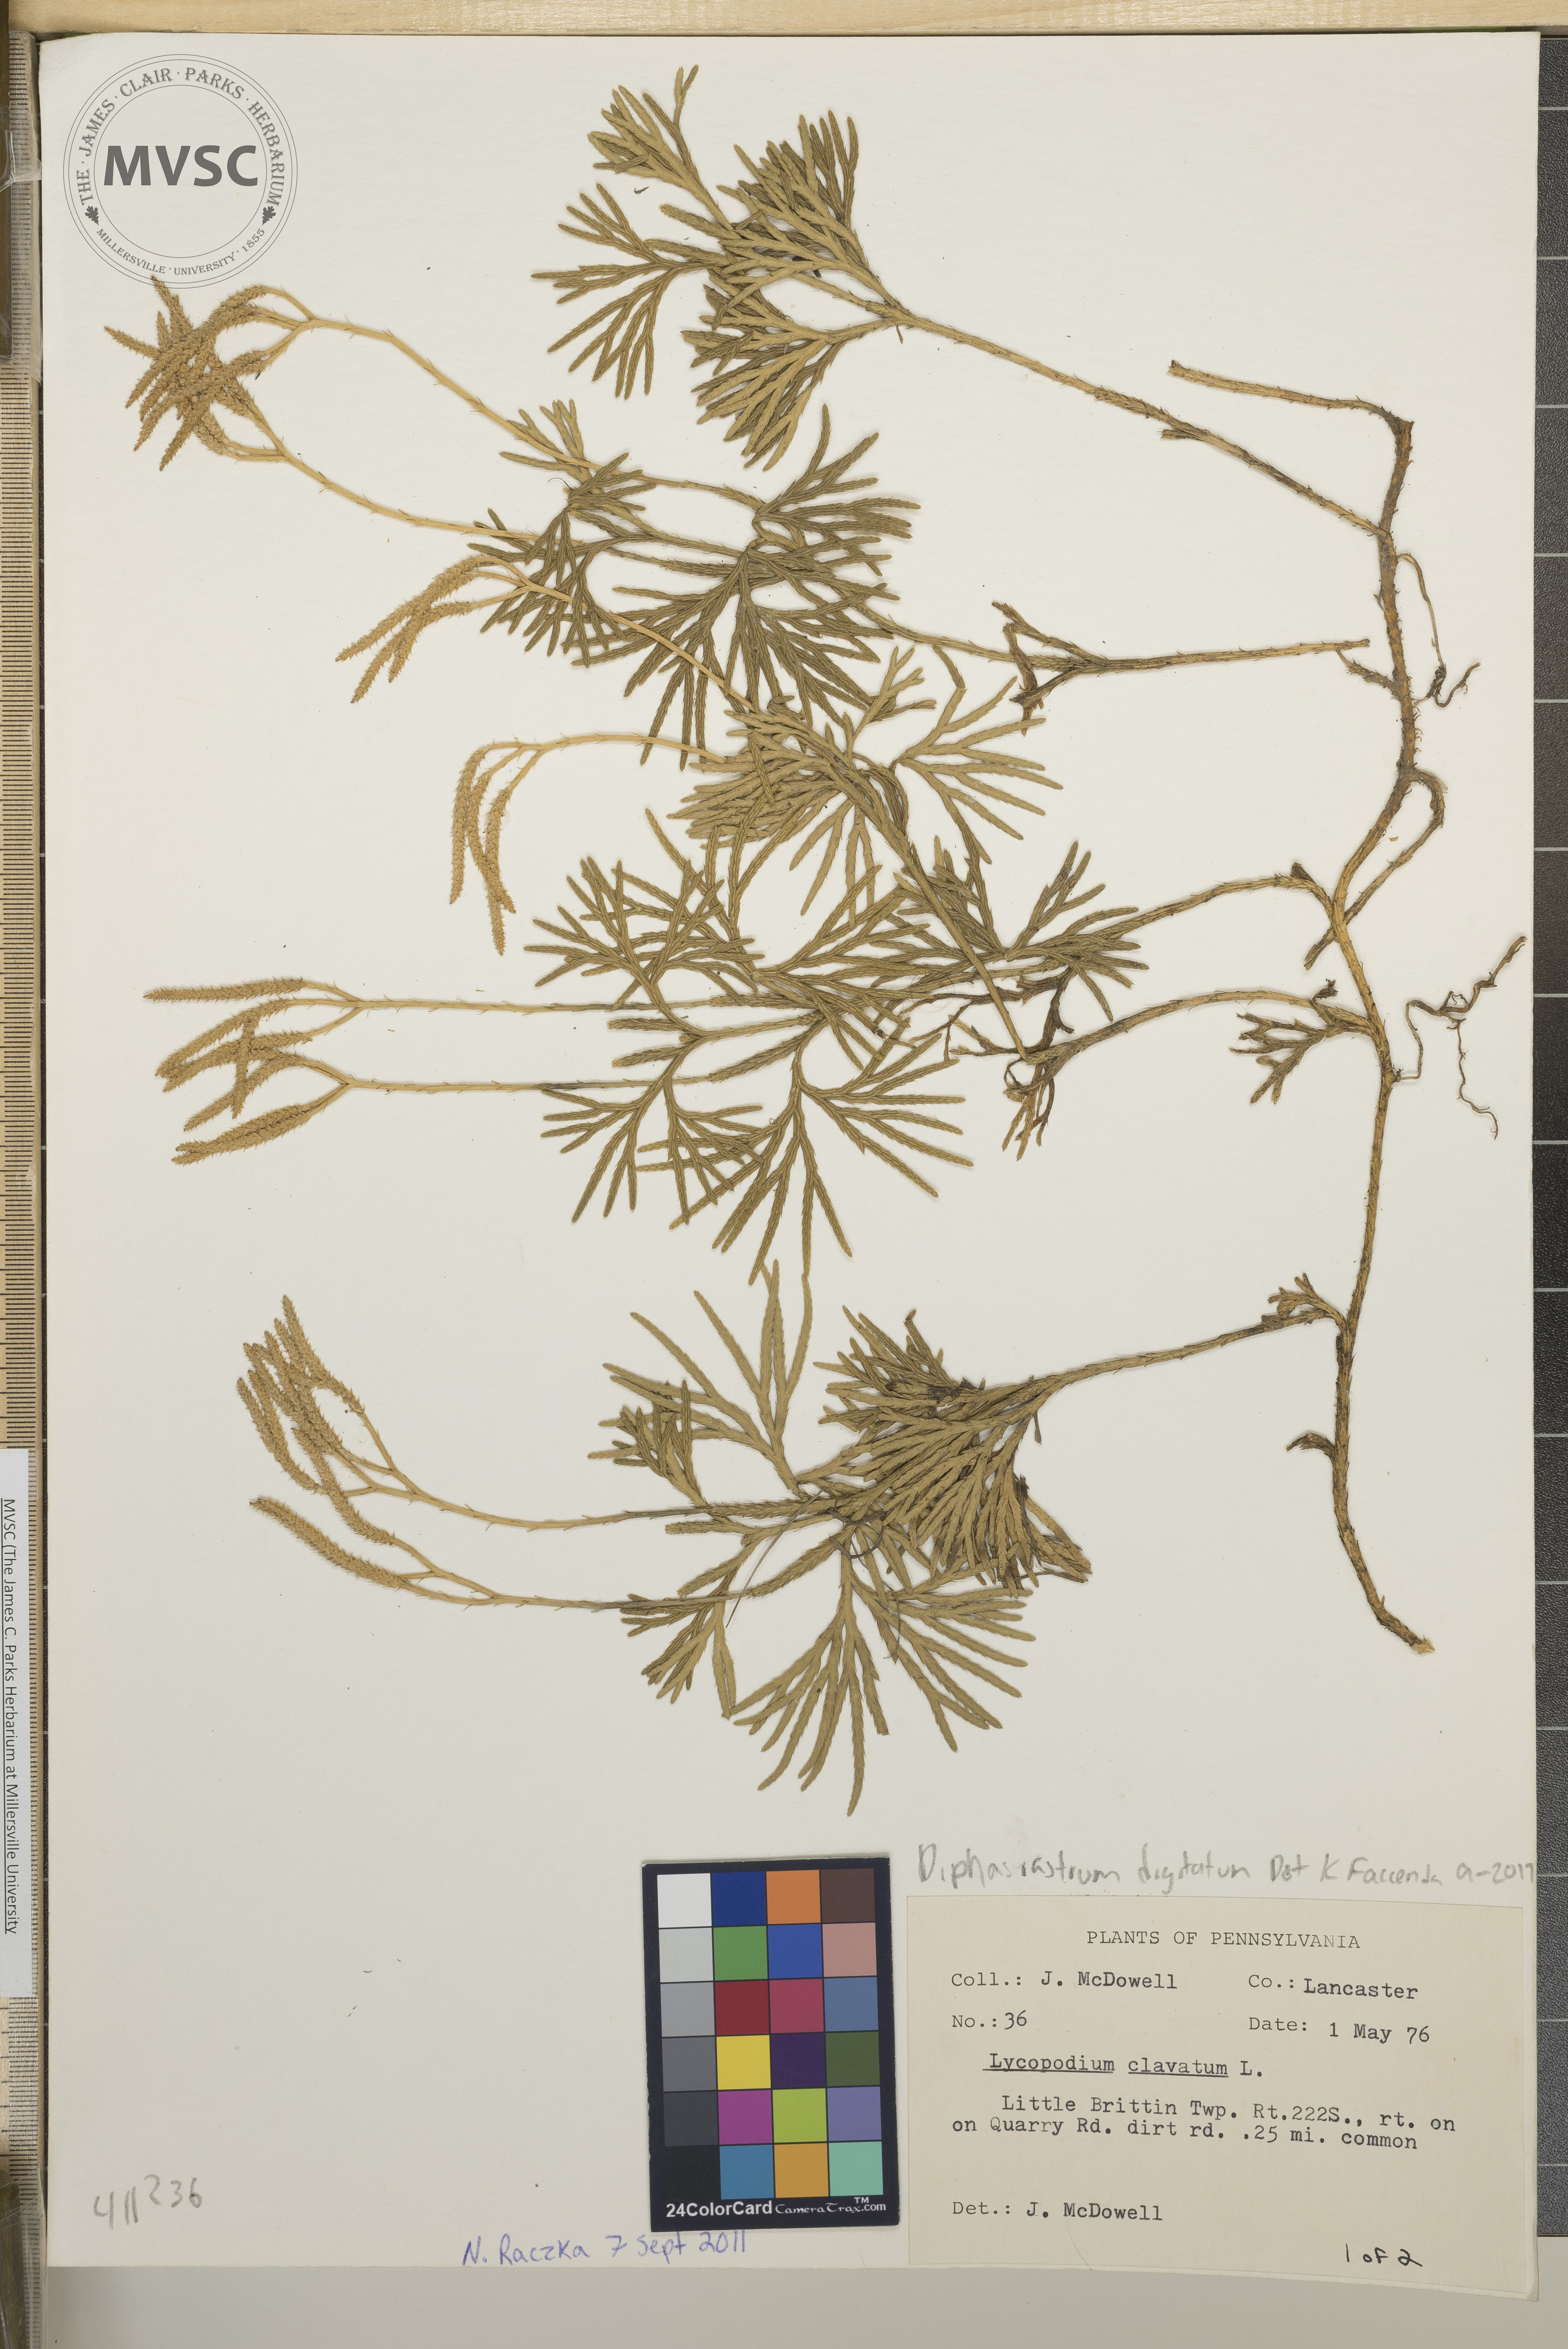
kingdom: Plantae
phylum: Tracheophyta
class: Lycopodiopsida
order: Lycopodiales
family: Lycopodiaceae
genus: Diphasiastrum
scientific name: Diphasiastrum digitatum
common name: Running-pine
